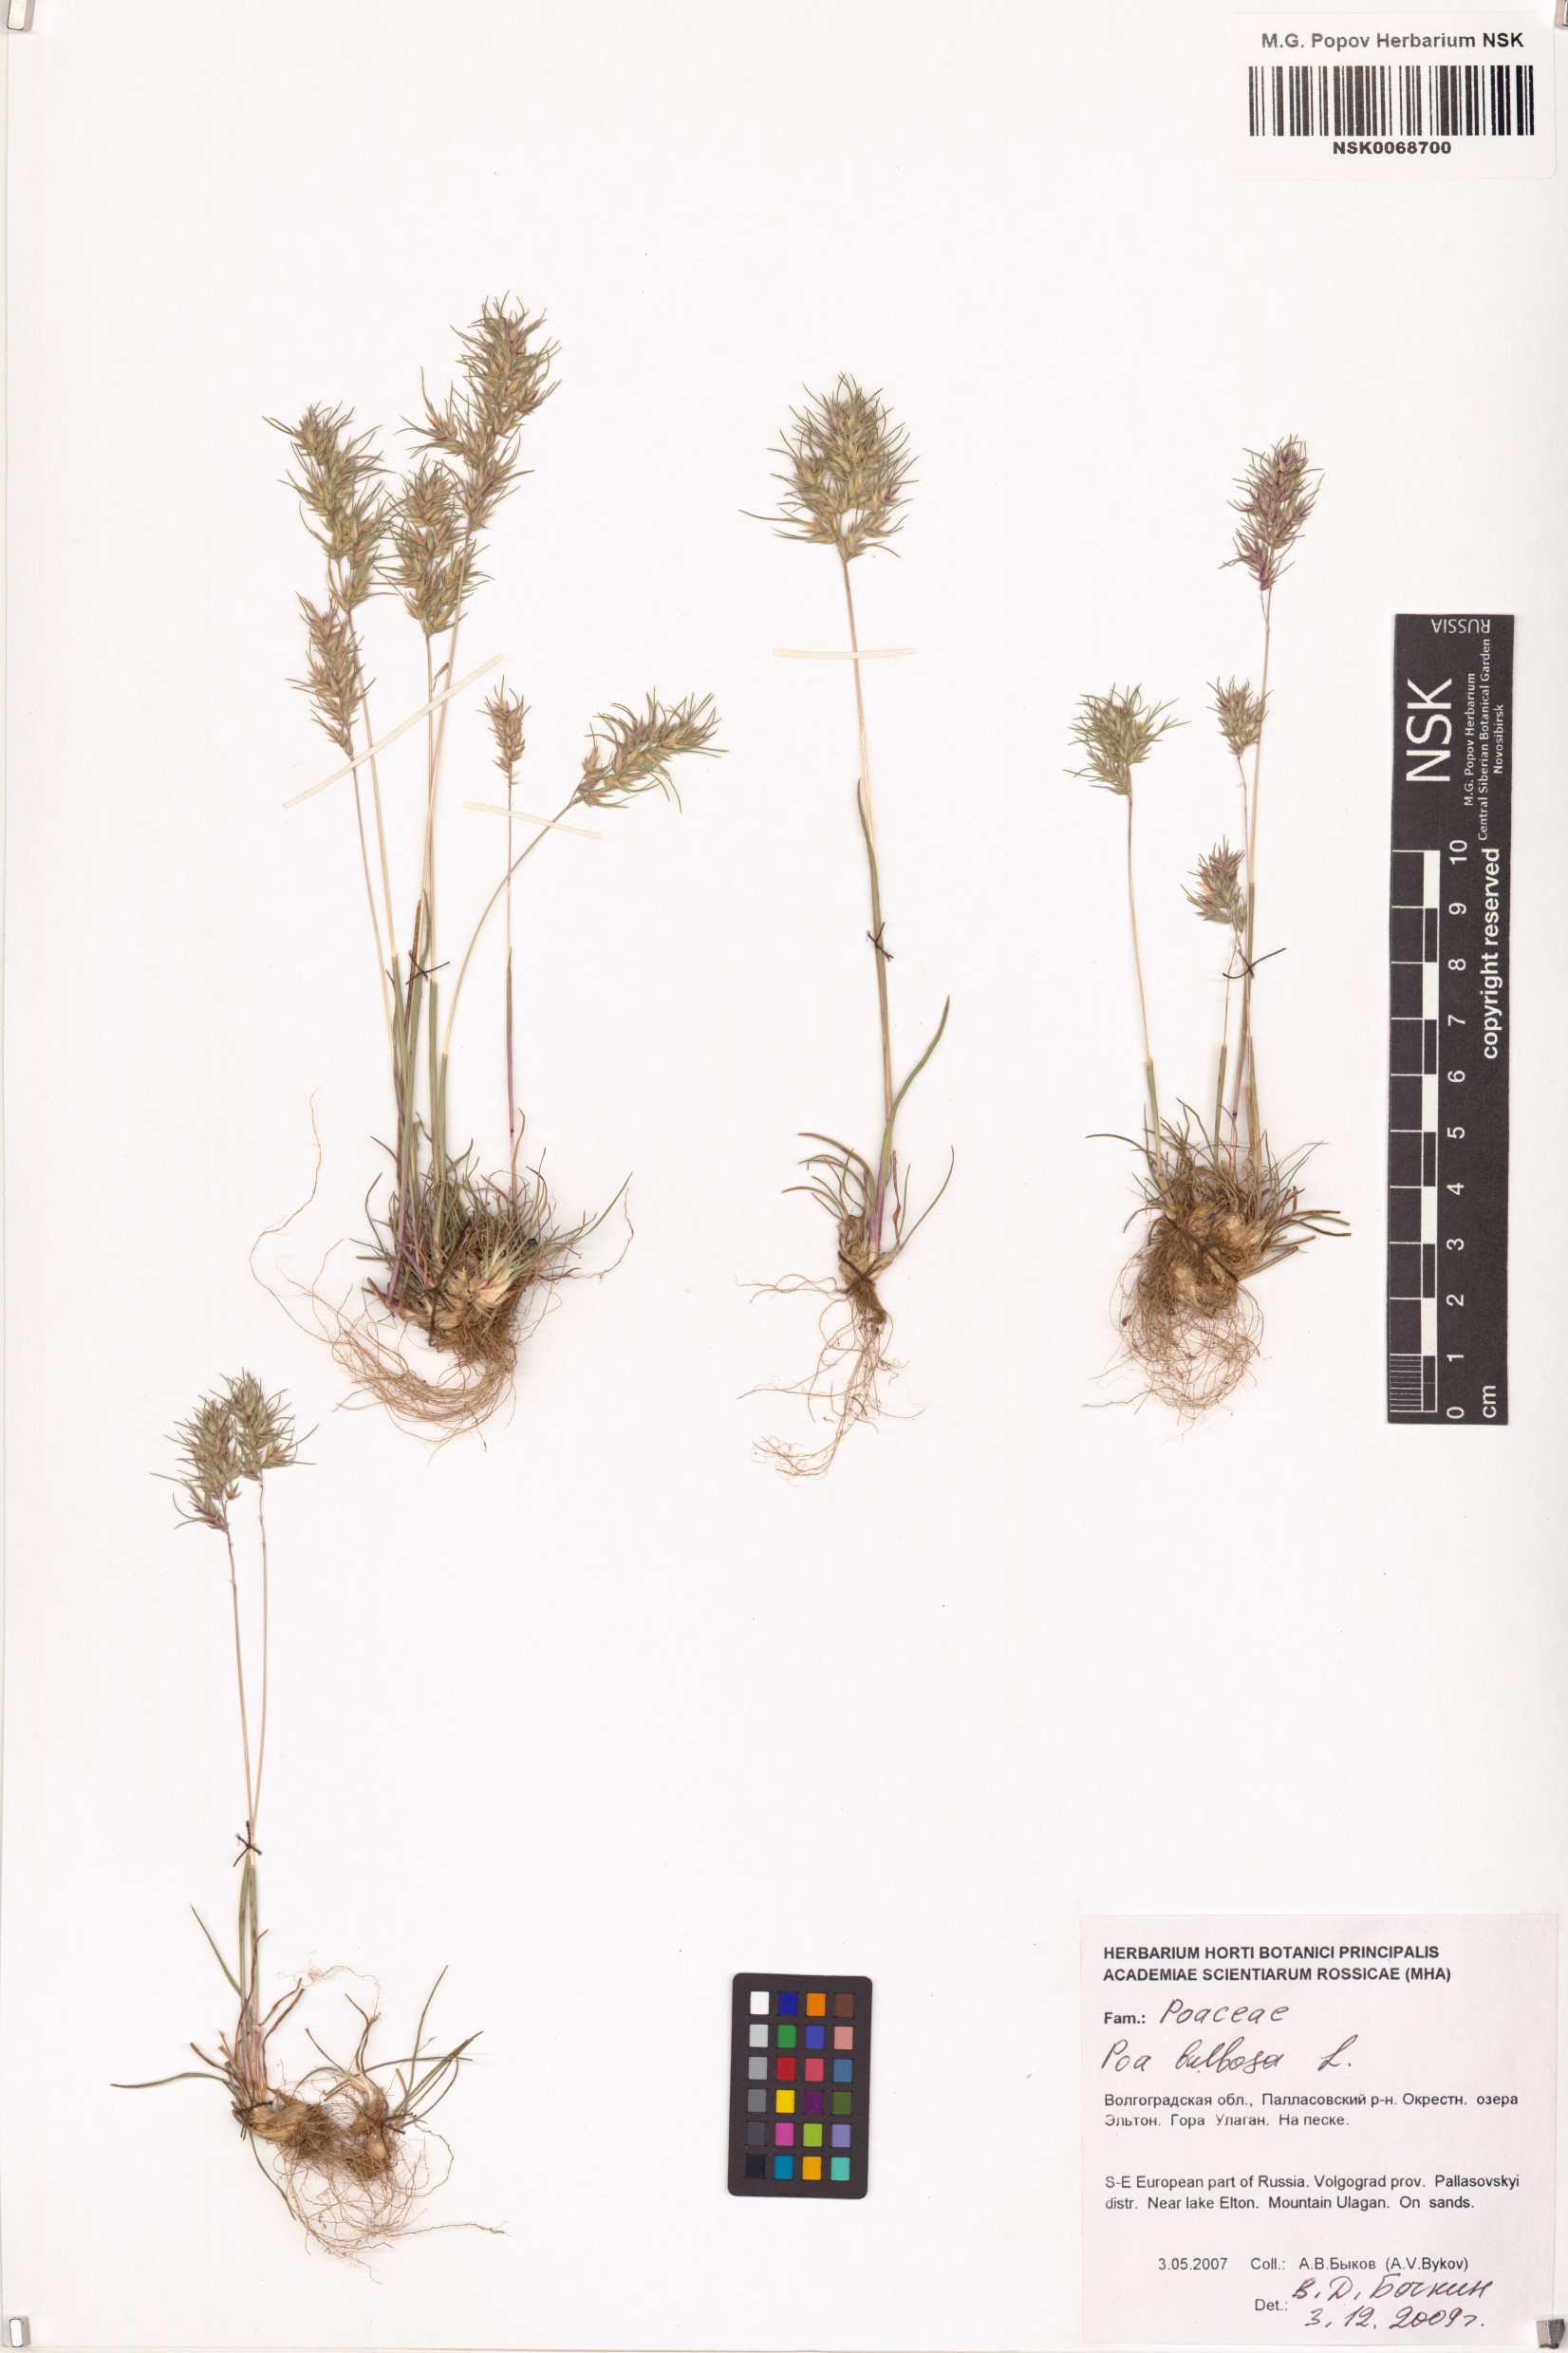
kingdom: Plantae
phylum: Tracheophyta
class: Liliopsida
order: Poales
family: Poaceae
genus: Poa
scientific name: Poa bulbosa
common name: Bulbous bluegrass
